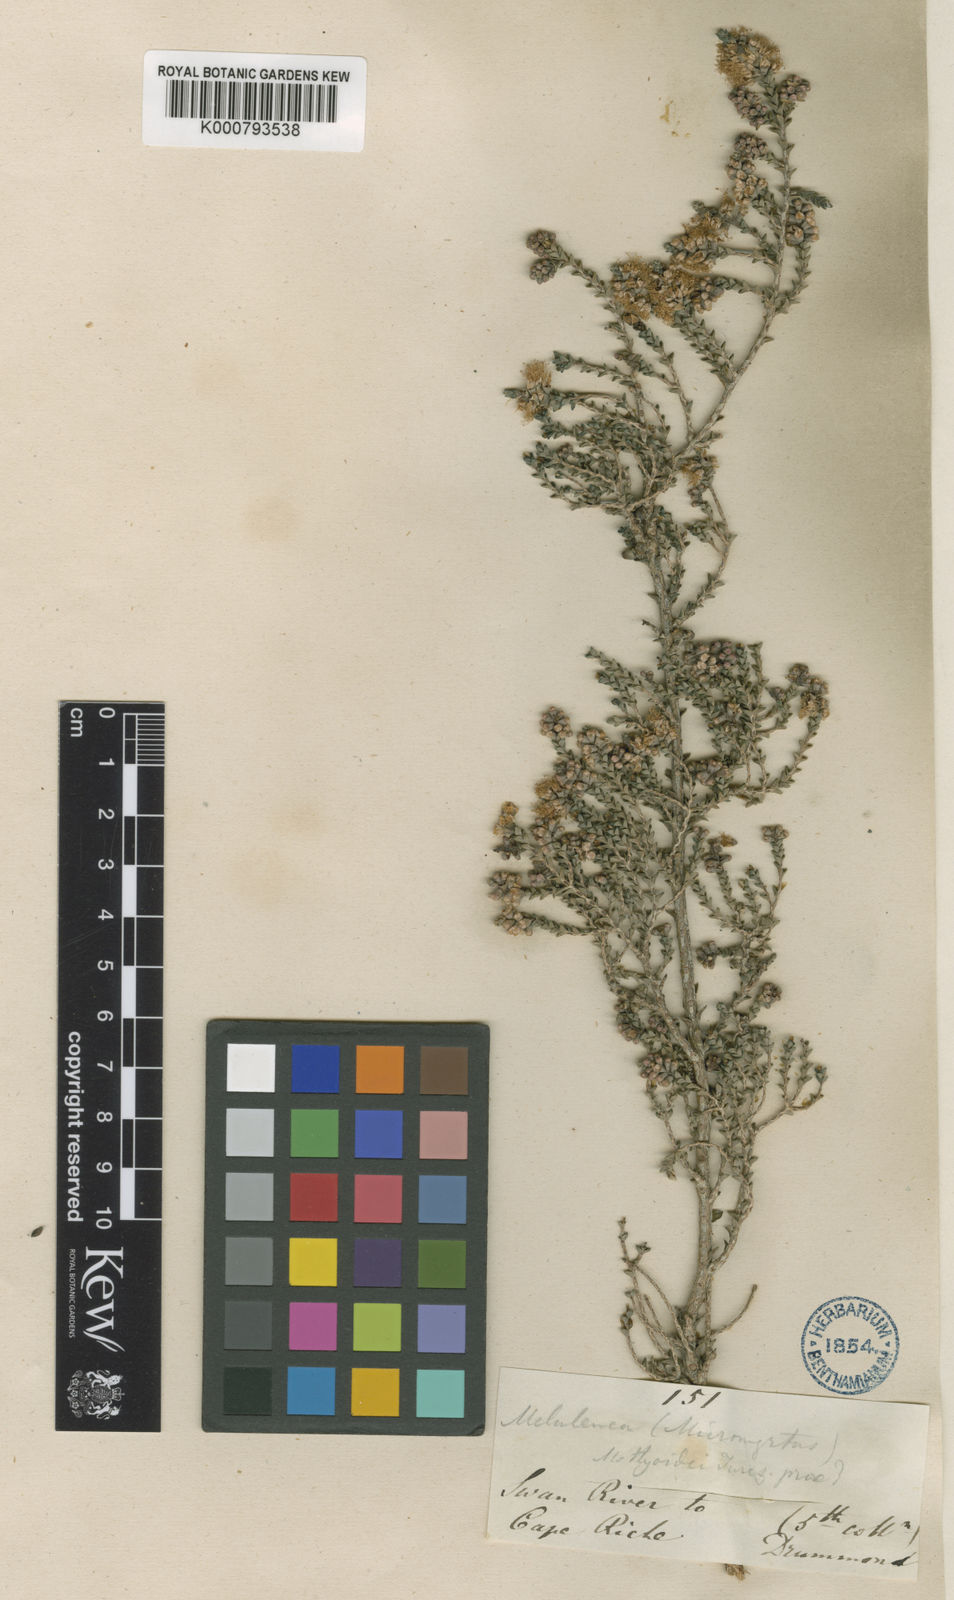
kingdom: Plantae
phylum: Tracheophyta
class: Magnoliopsida
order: Myrtales
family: Myrtaceae
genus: Melaleuca
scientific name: Melaleuca cucullata
